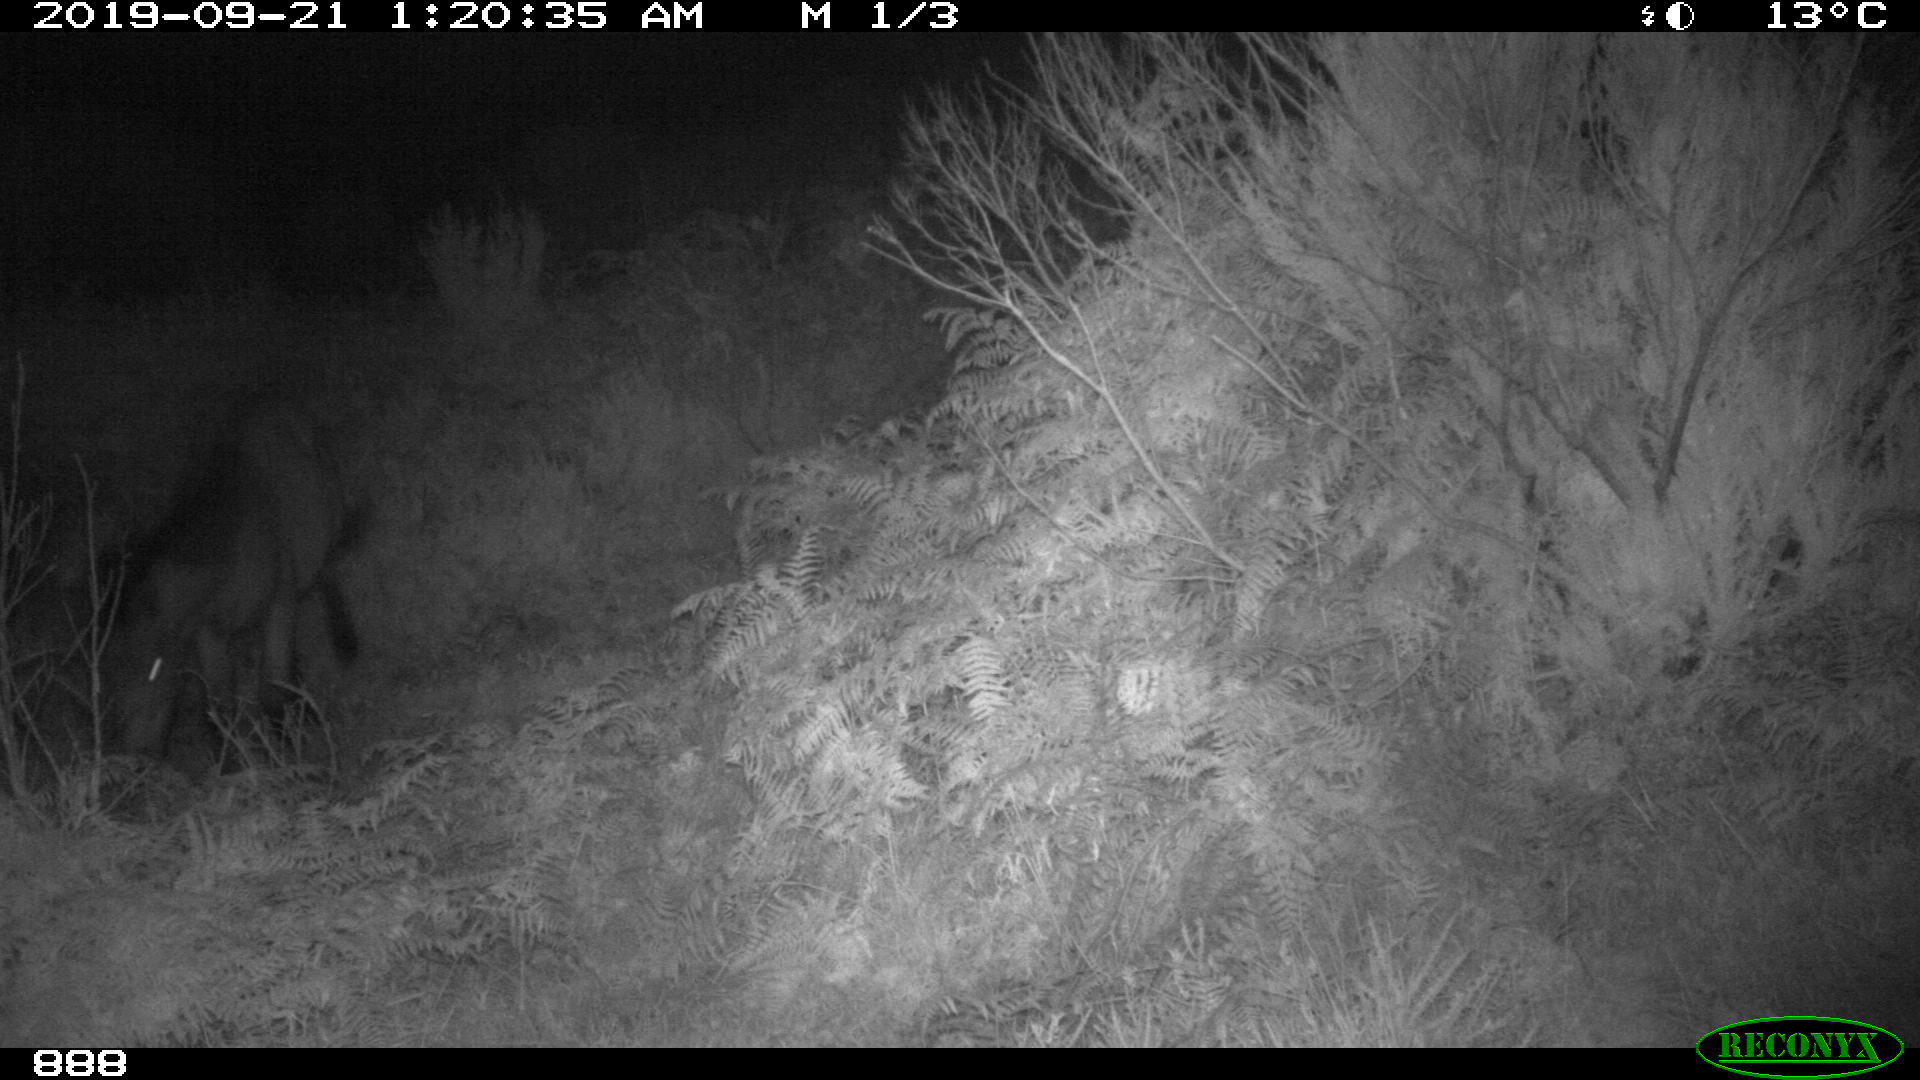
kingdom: Animalia
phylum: Chordata
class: Mammalia
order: Perissodactyla
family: Equidae
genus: Equus
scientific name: Equus caballus
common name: Horse
